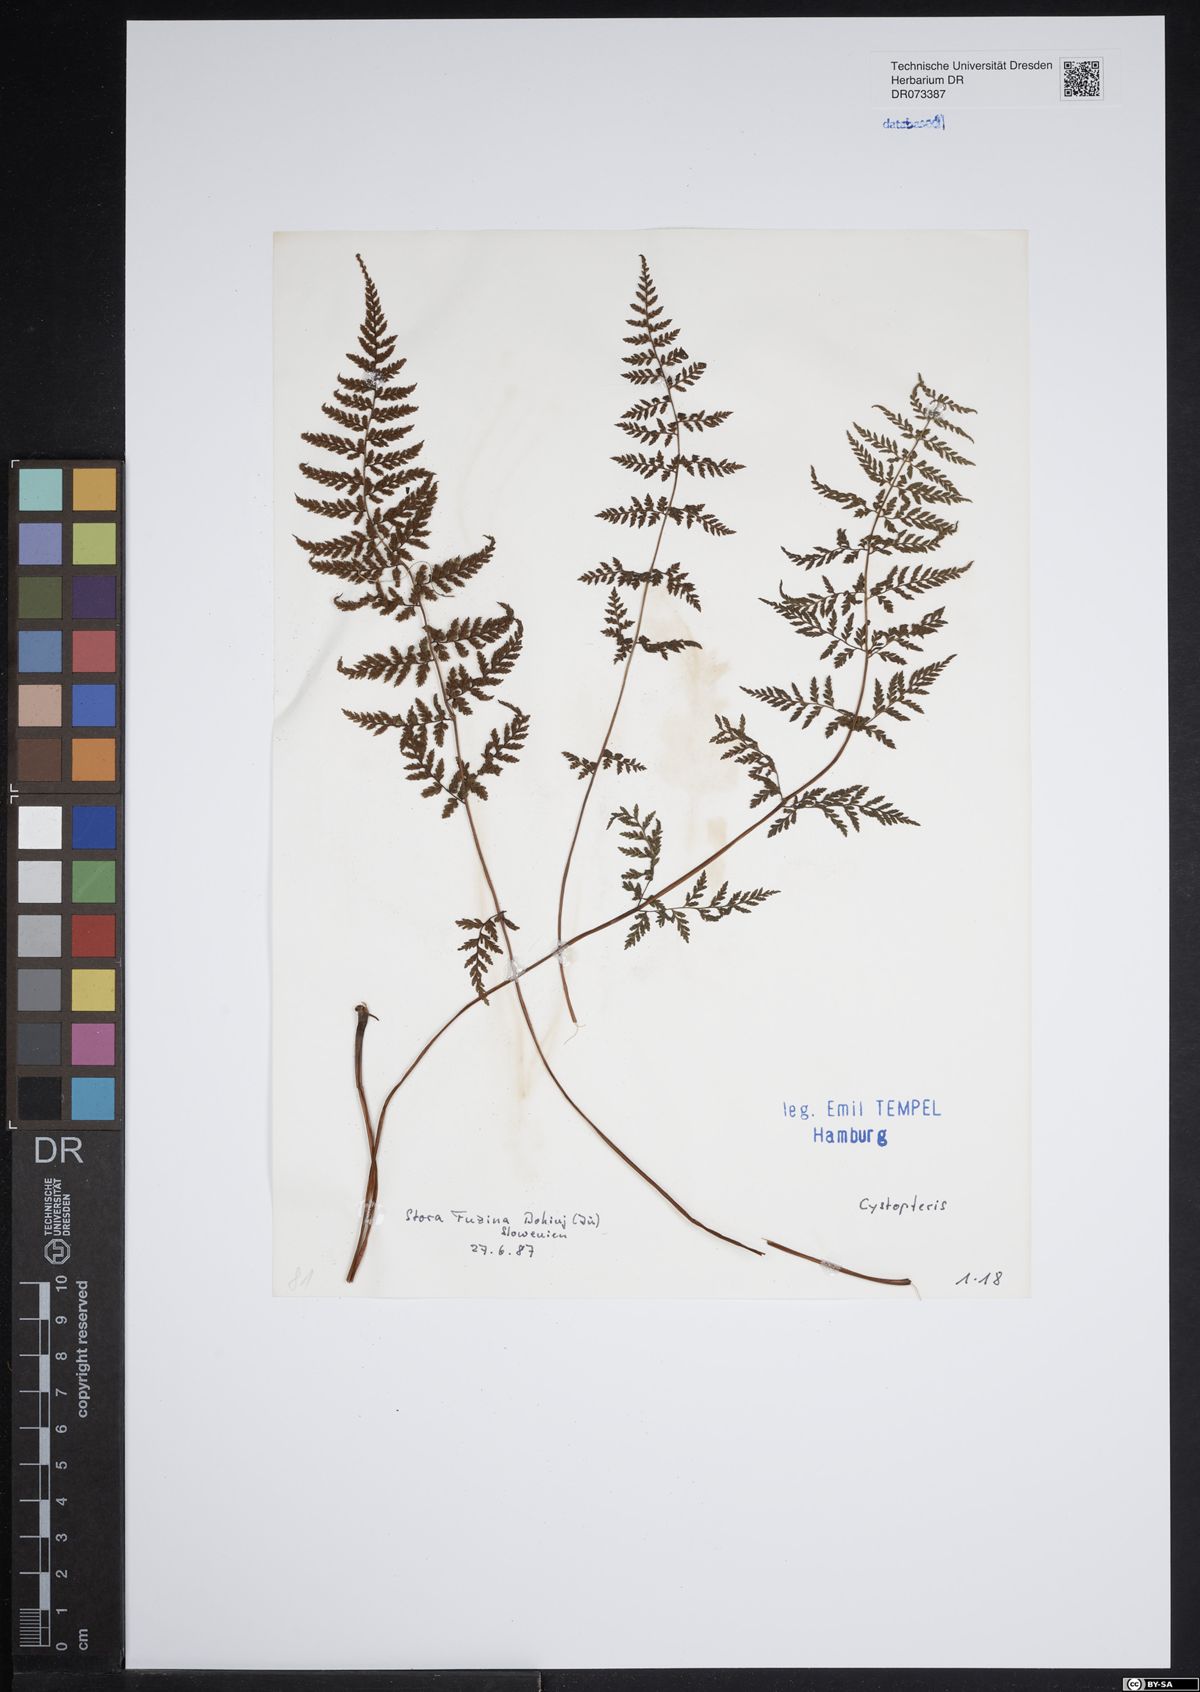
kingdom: Plantae
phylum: Tracheophyta
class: Polypodiopsida
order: Polypodiales
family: Cystopteridaceae
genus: Cystopteris
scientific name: Cystopteris
